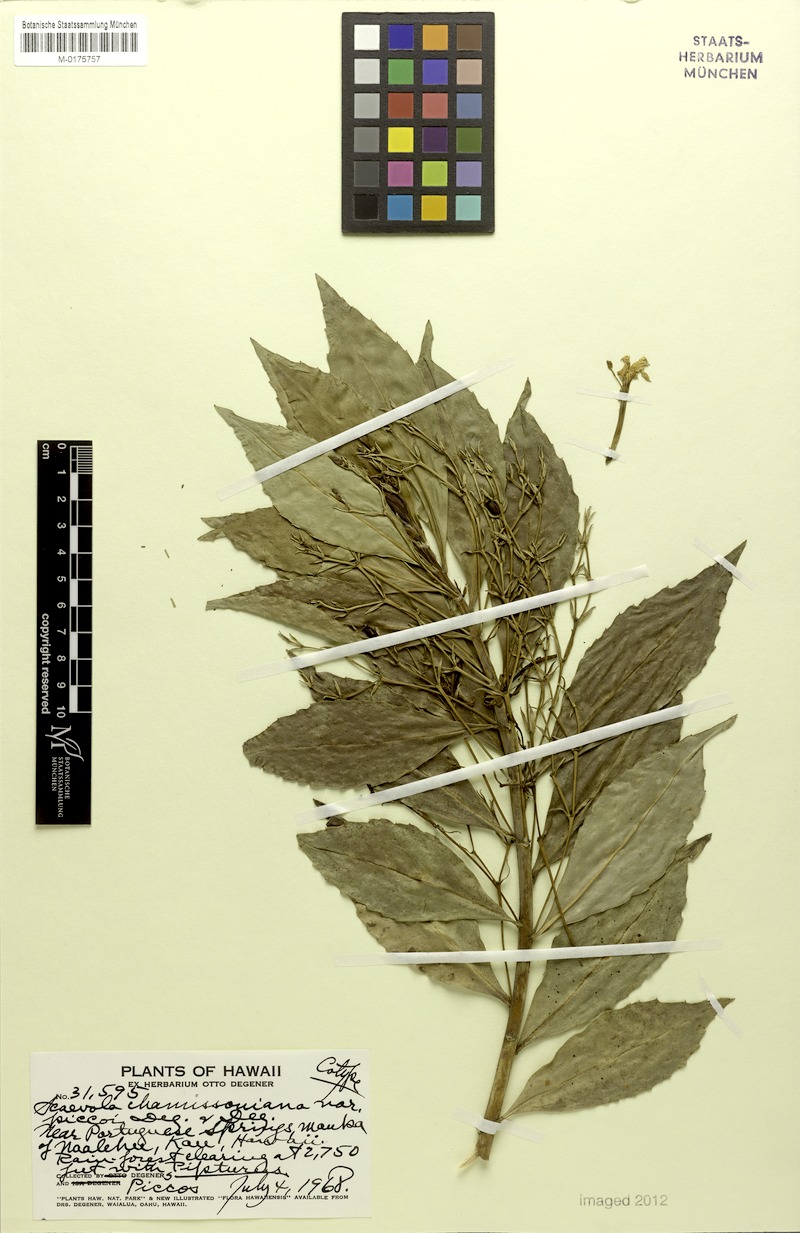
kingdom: Plantae
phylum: Tracheophyta
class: Magnoliopsida
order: Asterales
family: Goodeniaceae
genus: Scaevola
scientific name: Scaevola chamissoniana
